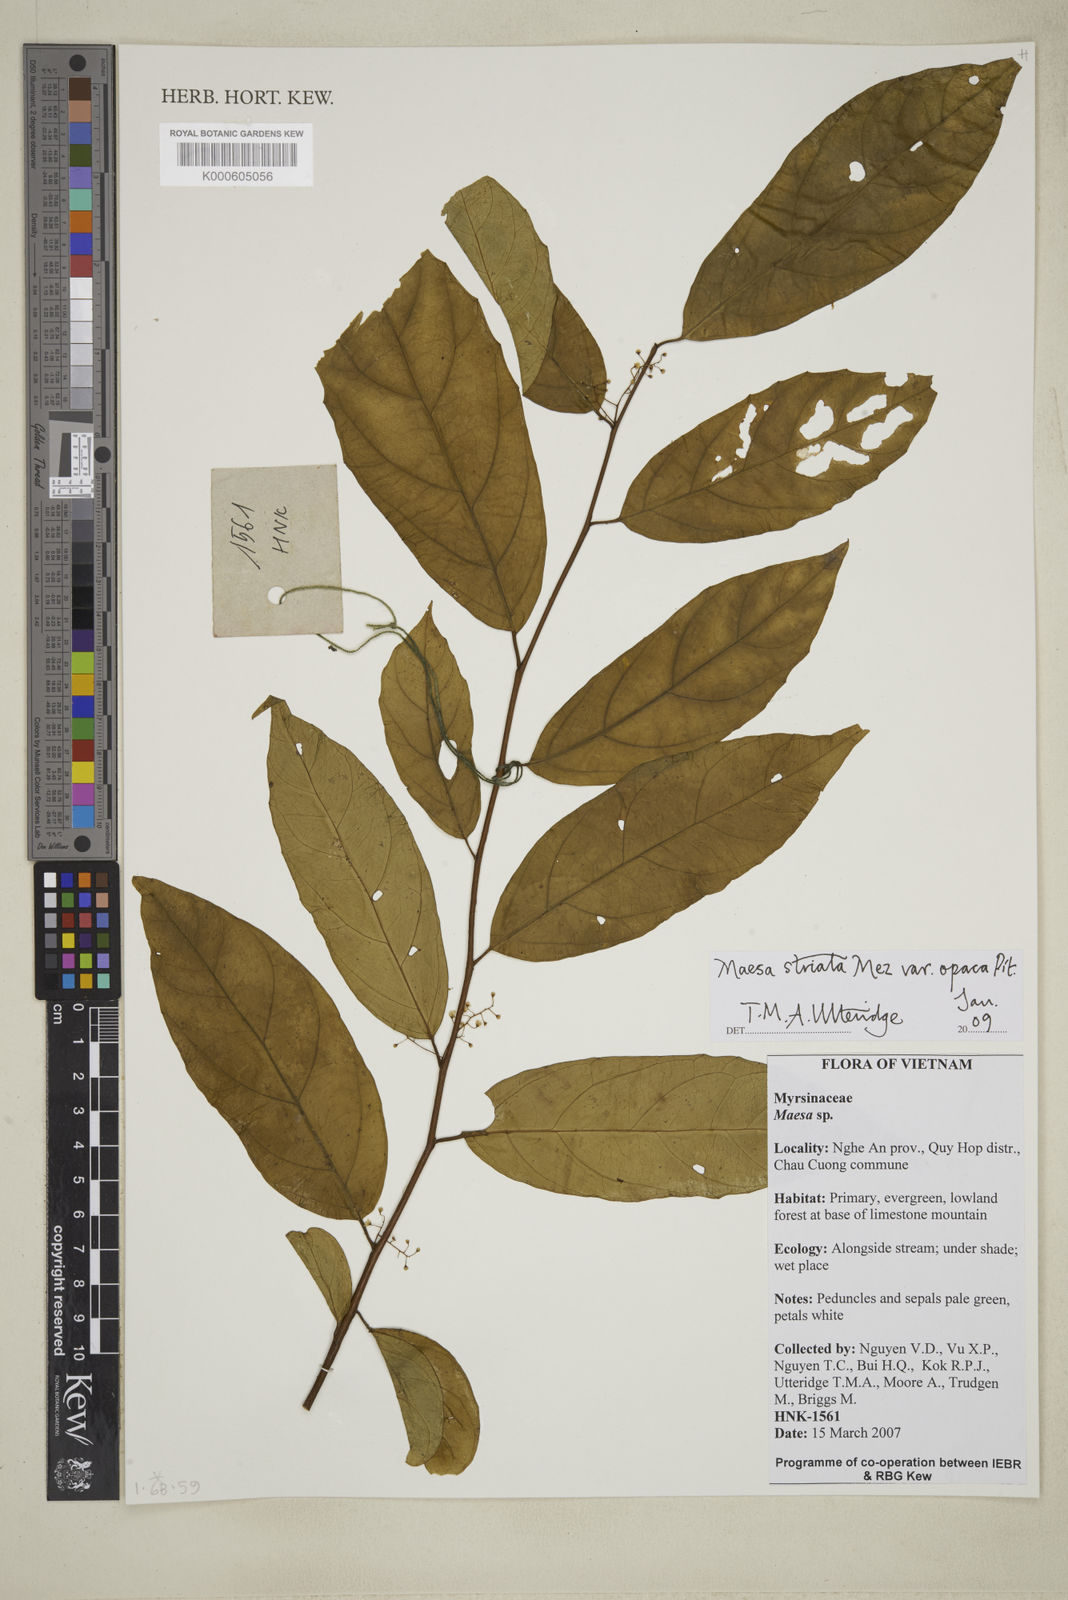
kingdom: Plantae
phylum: Tracheophyta
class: Magnoliopsida
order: Ericales
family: Primulaceae
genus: Maesa
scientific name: Maesa striata
